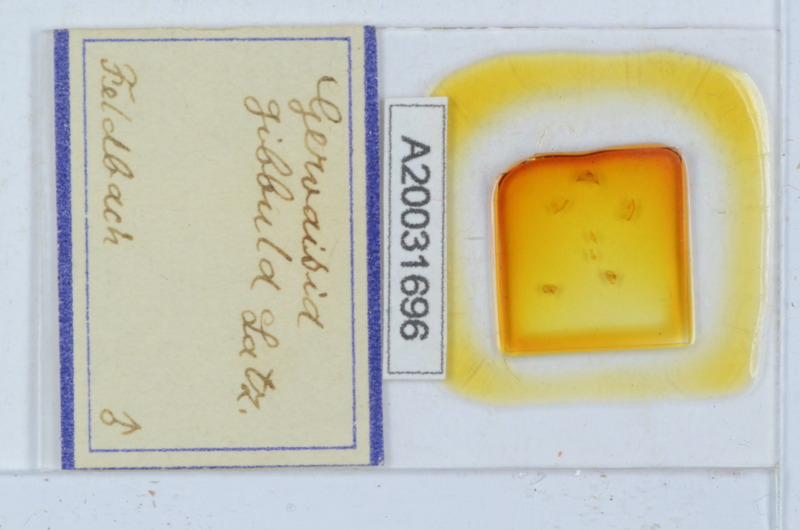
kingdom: Animalia
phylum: Arthropoda
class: Diplopoda
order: Glomerida
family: Glomeridae
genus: Gervaisia
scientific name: Gervaisia gibbula
